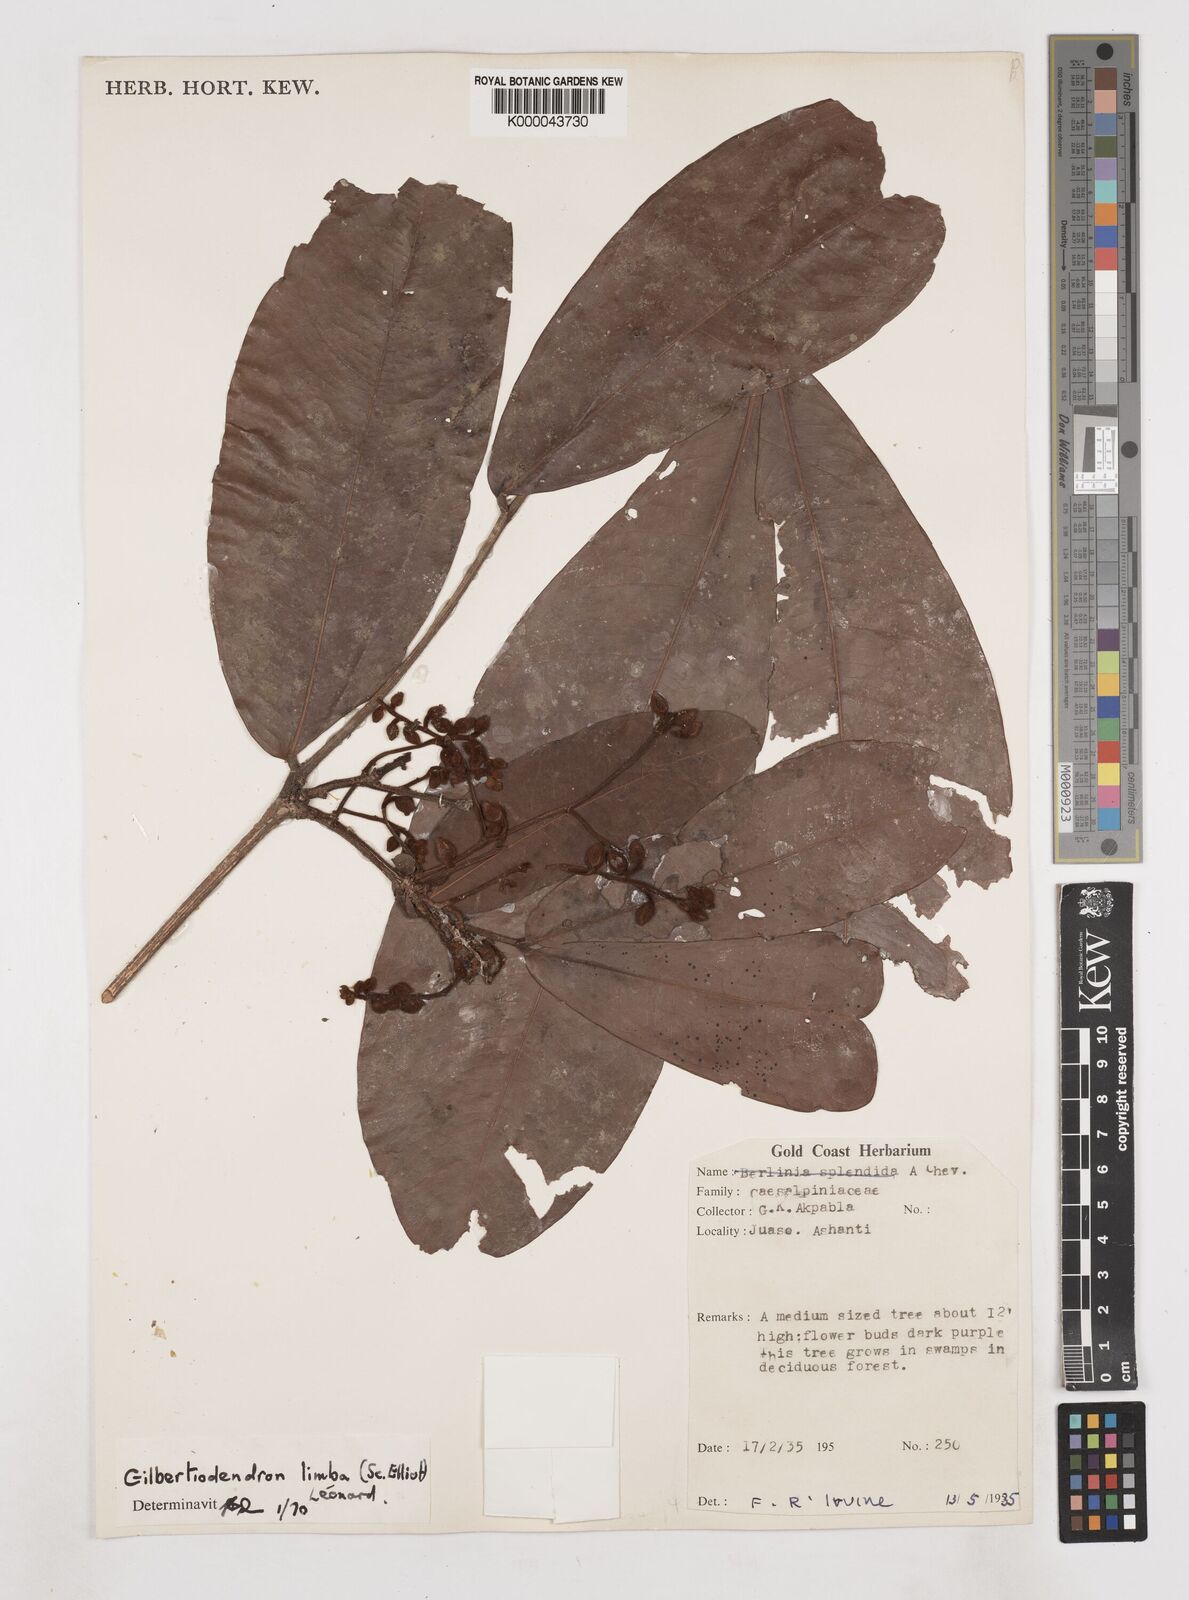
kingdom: Plantae
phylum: Tracheophyta
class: Magnoliopsida
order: Fabales
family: Fabaceae
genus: Gilbertiodendron
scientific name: Gilbertiodendron
